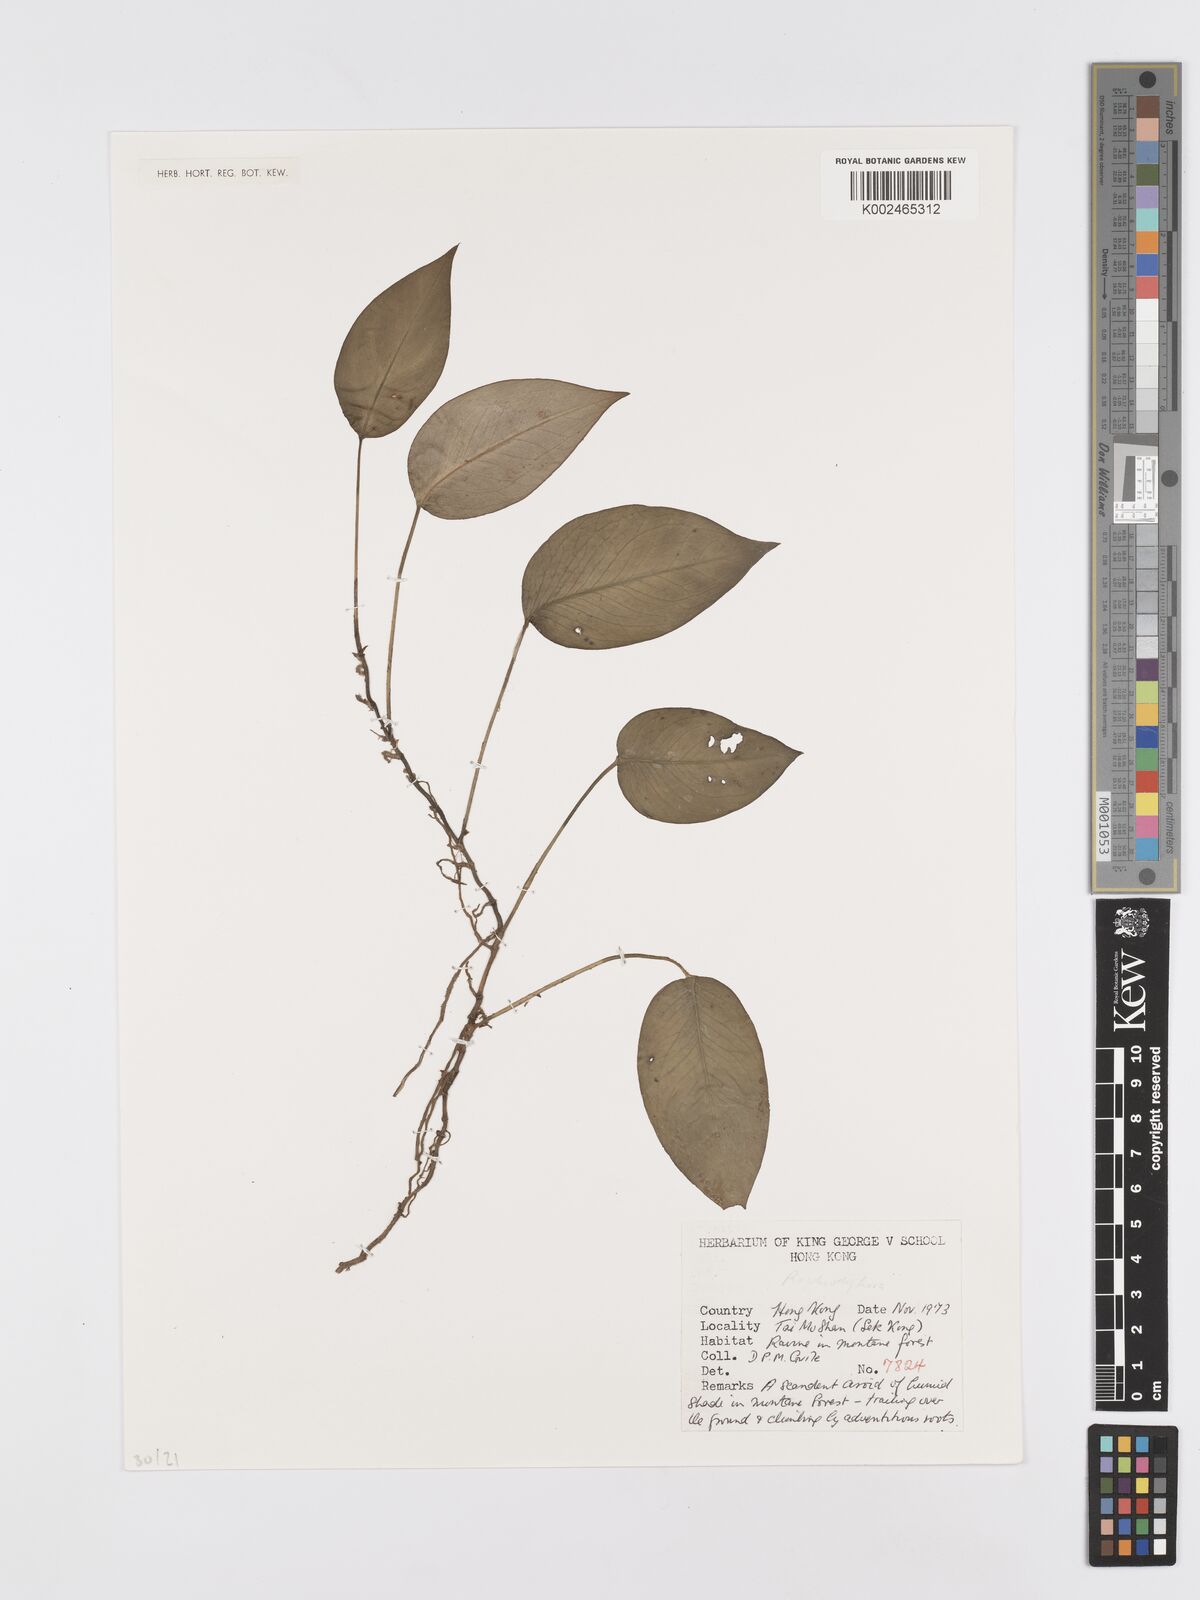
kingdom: Plantae
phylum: Tracheophyta
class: Liliopsida
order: Alismatales
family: Araceae
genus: Rhaphidophora
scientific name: Rhaphidophora
